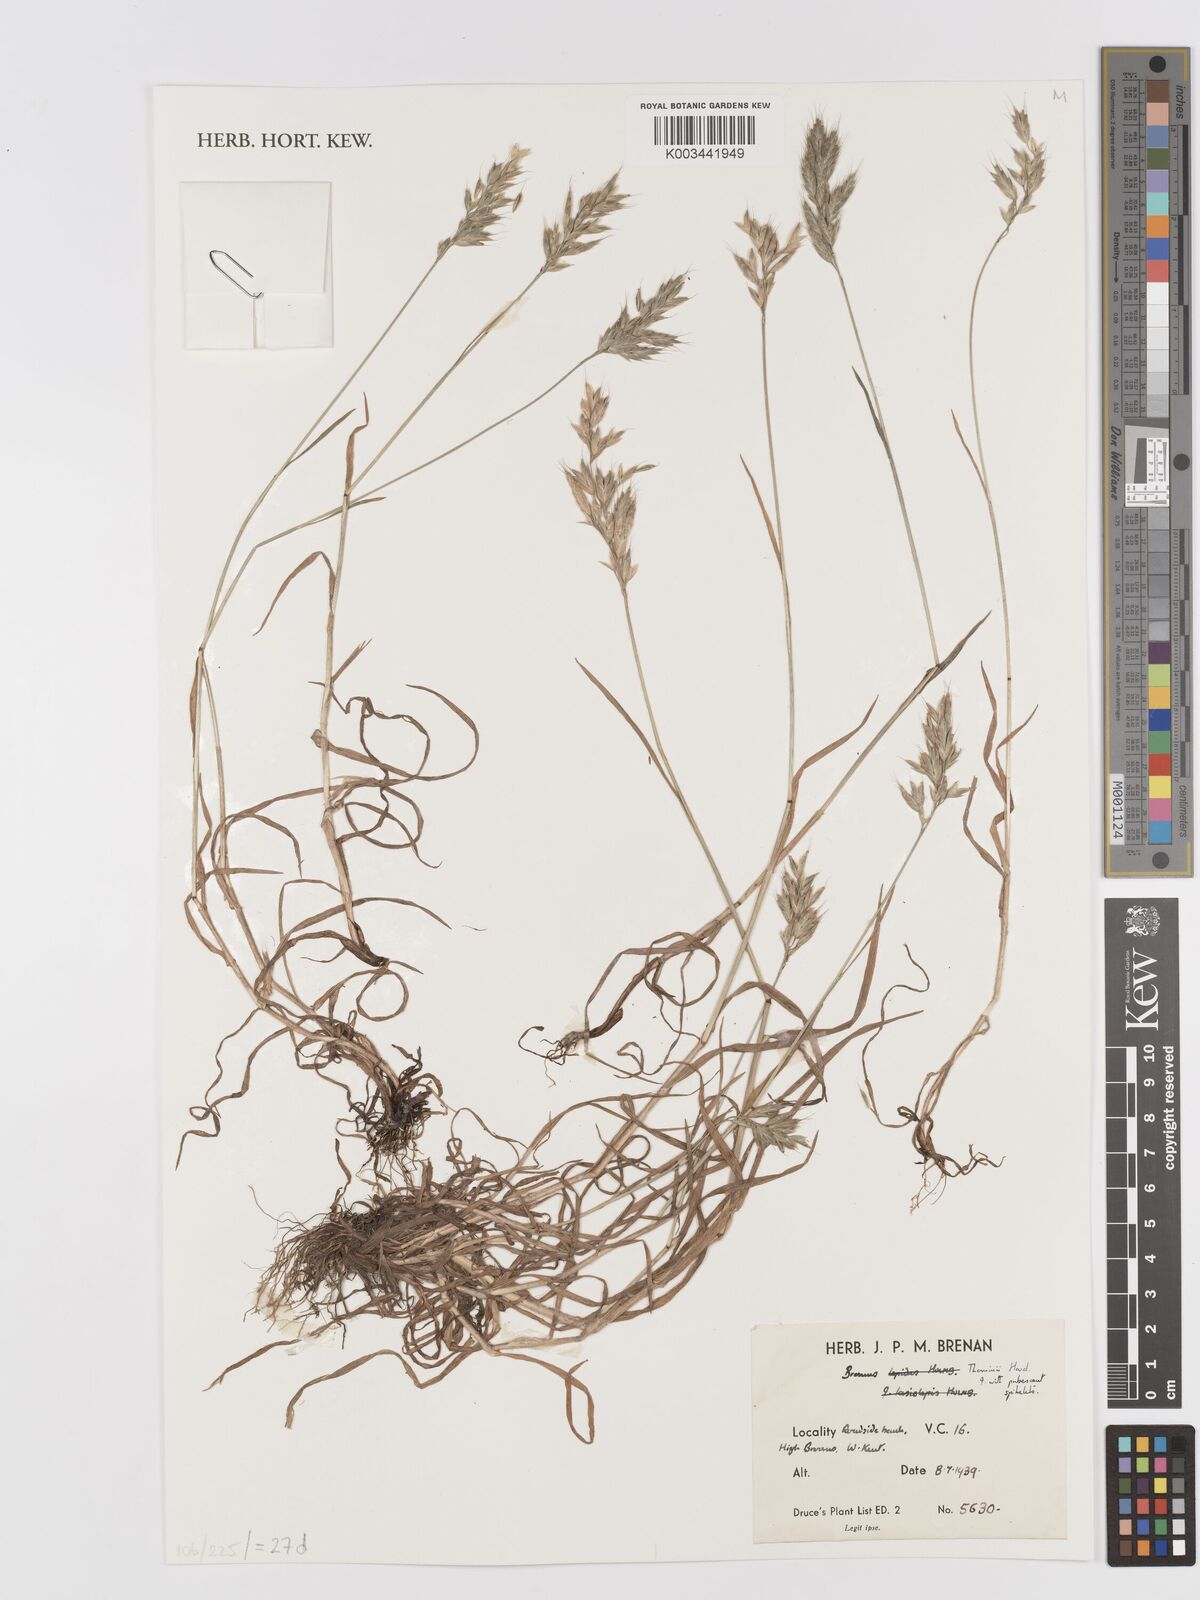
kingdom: Plantae
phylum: Tracheophyta
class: Liliopsida
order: Poales
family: Poaceae
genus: Bromus
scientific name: Bromus hordeaceus
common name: Soft brome
